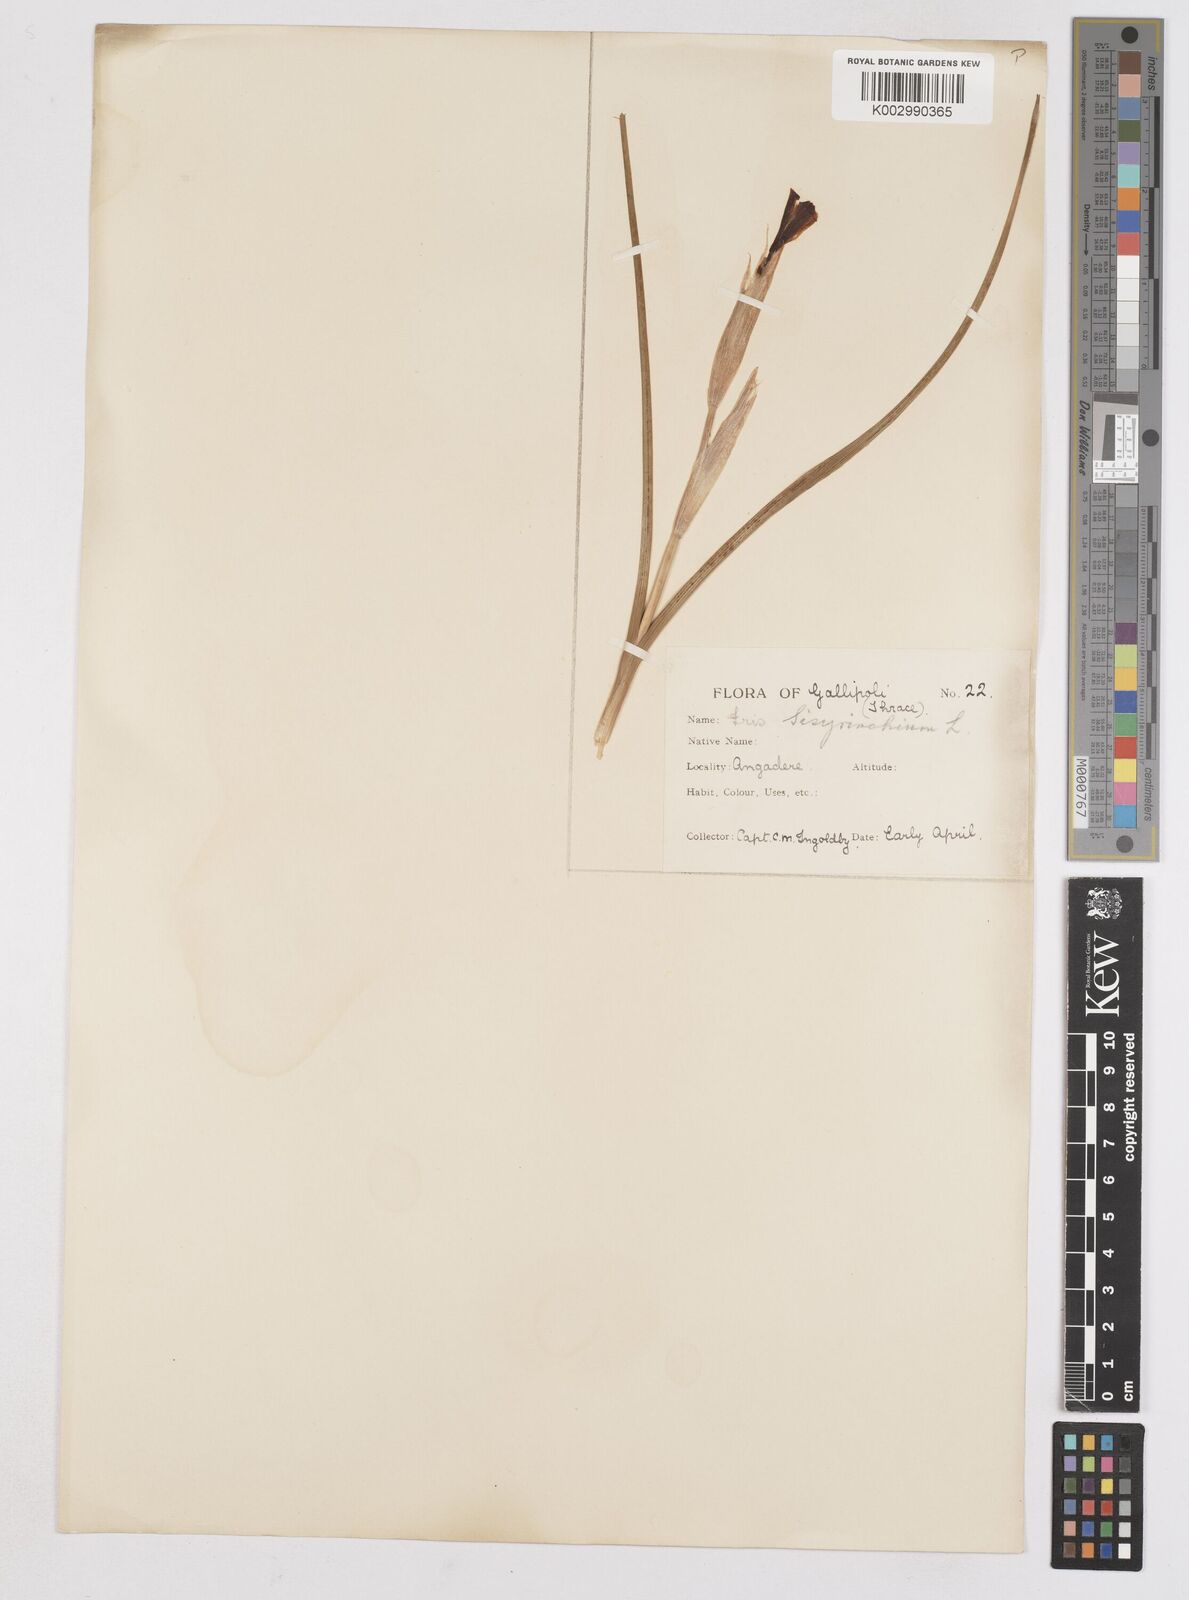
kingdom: Plantae
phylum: Tracheophyta
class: Liliopsida
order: Asparagales
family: Iridaceae
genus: Moraea
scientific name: Moraea sisyrinchium
